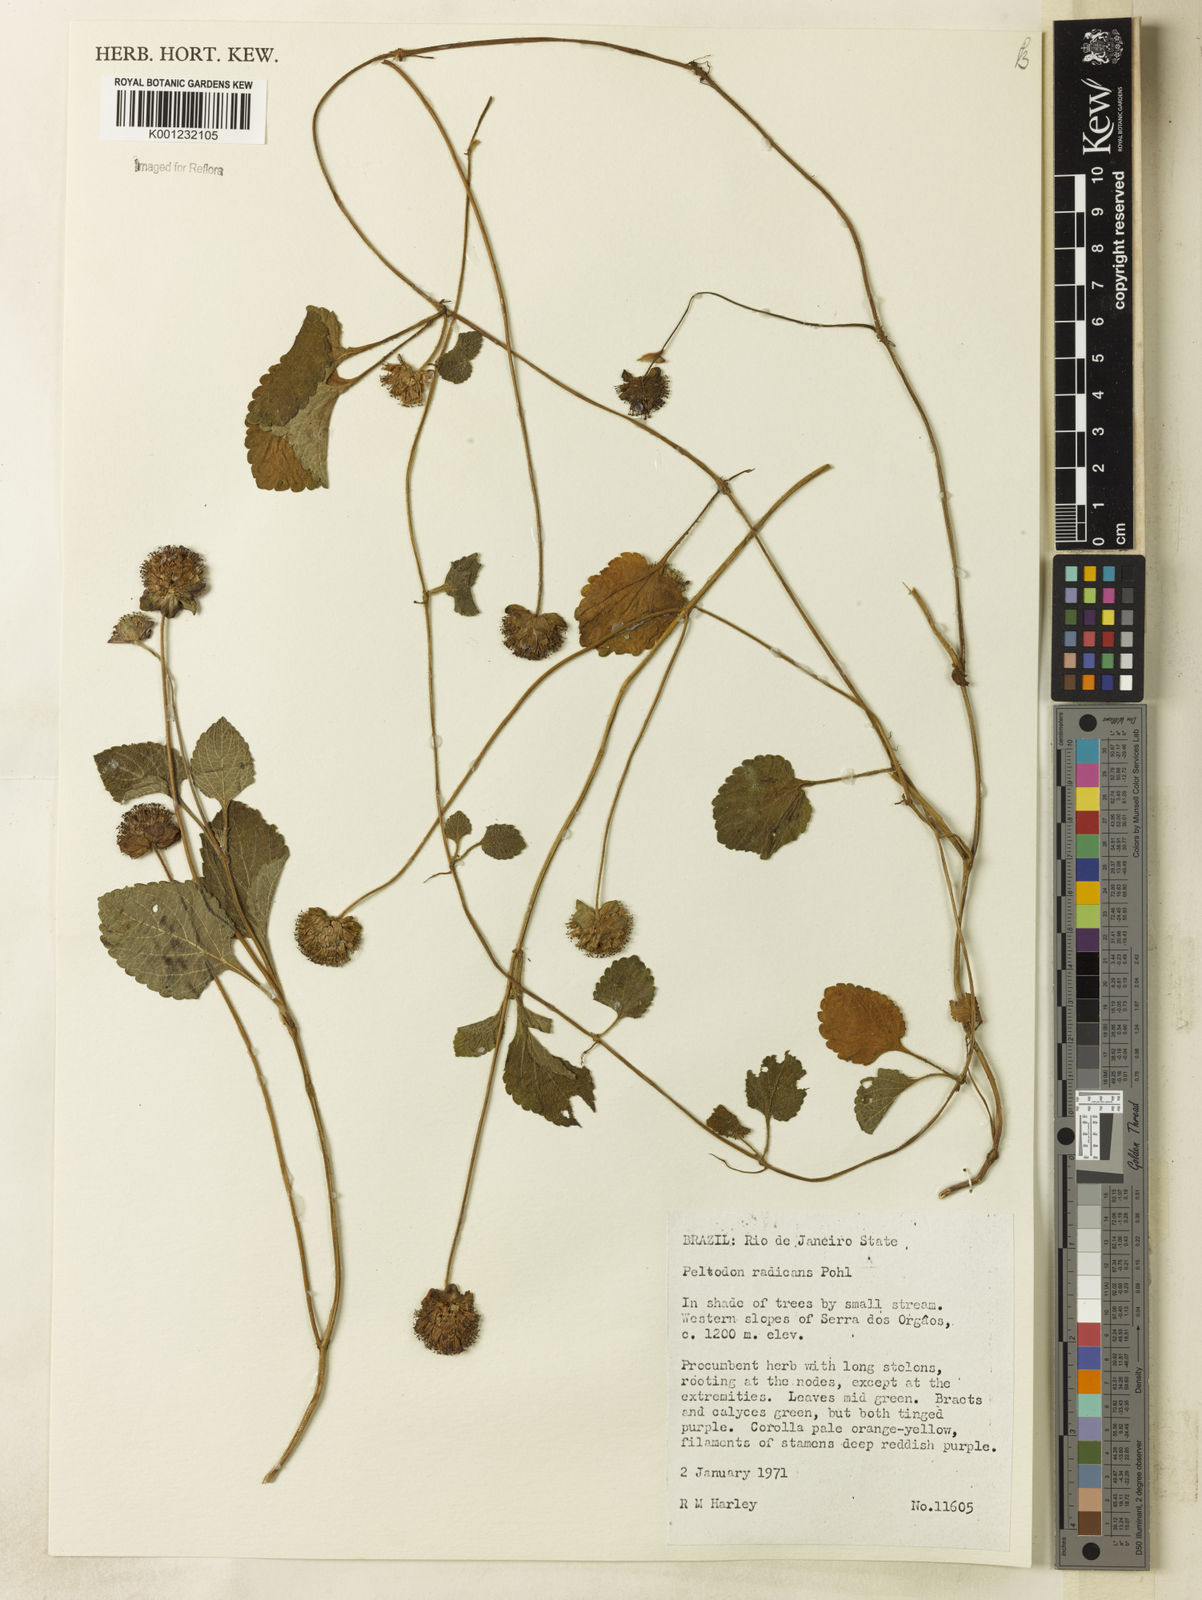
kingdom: Plantae
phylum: Tracheophyta
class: Magnoliopsida
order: Lamiales
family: Lamiaceae
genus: Hyptis
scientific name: Hyptis radicans
